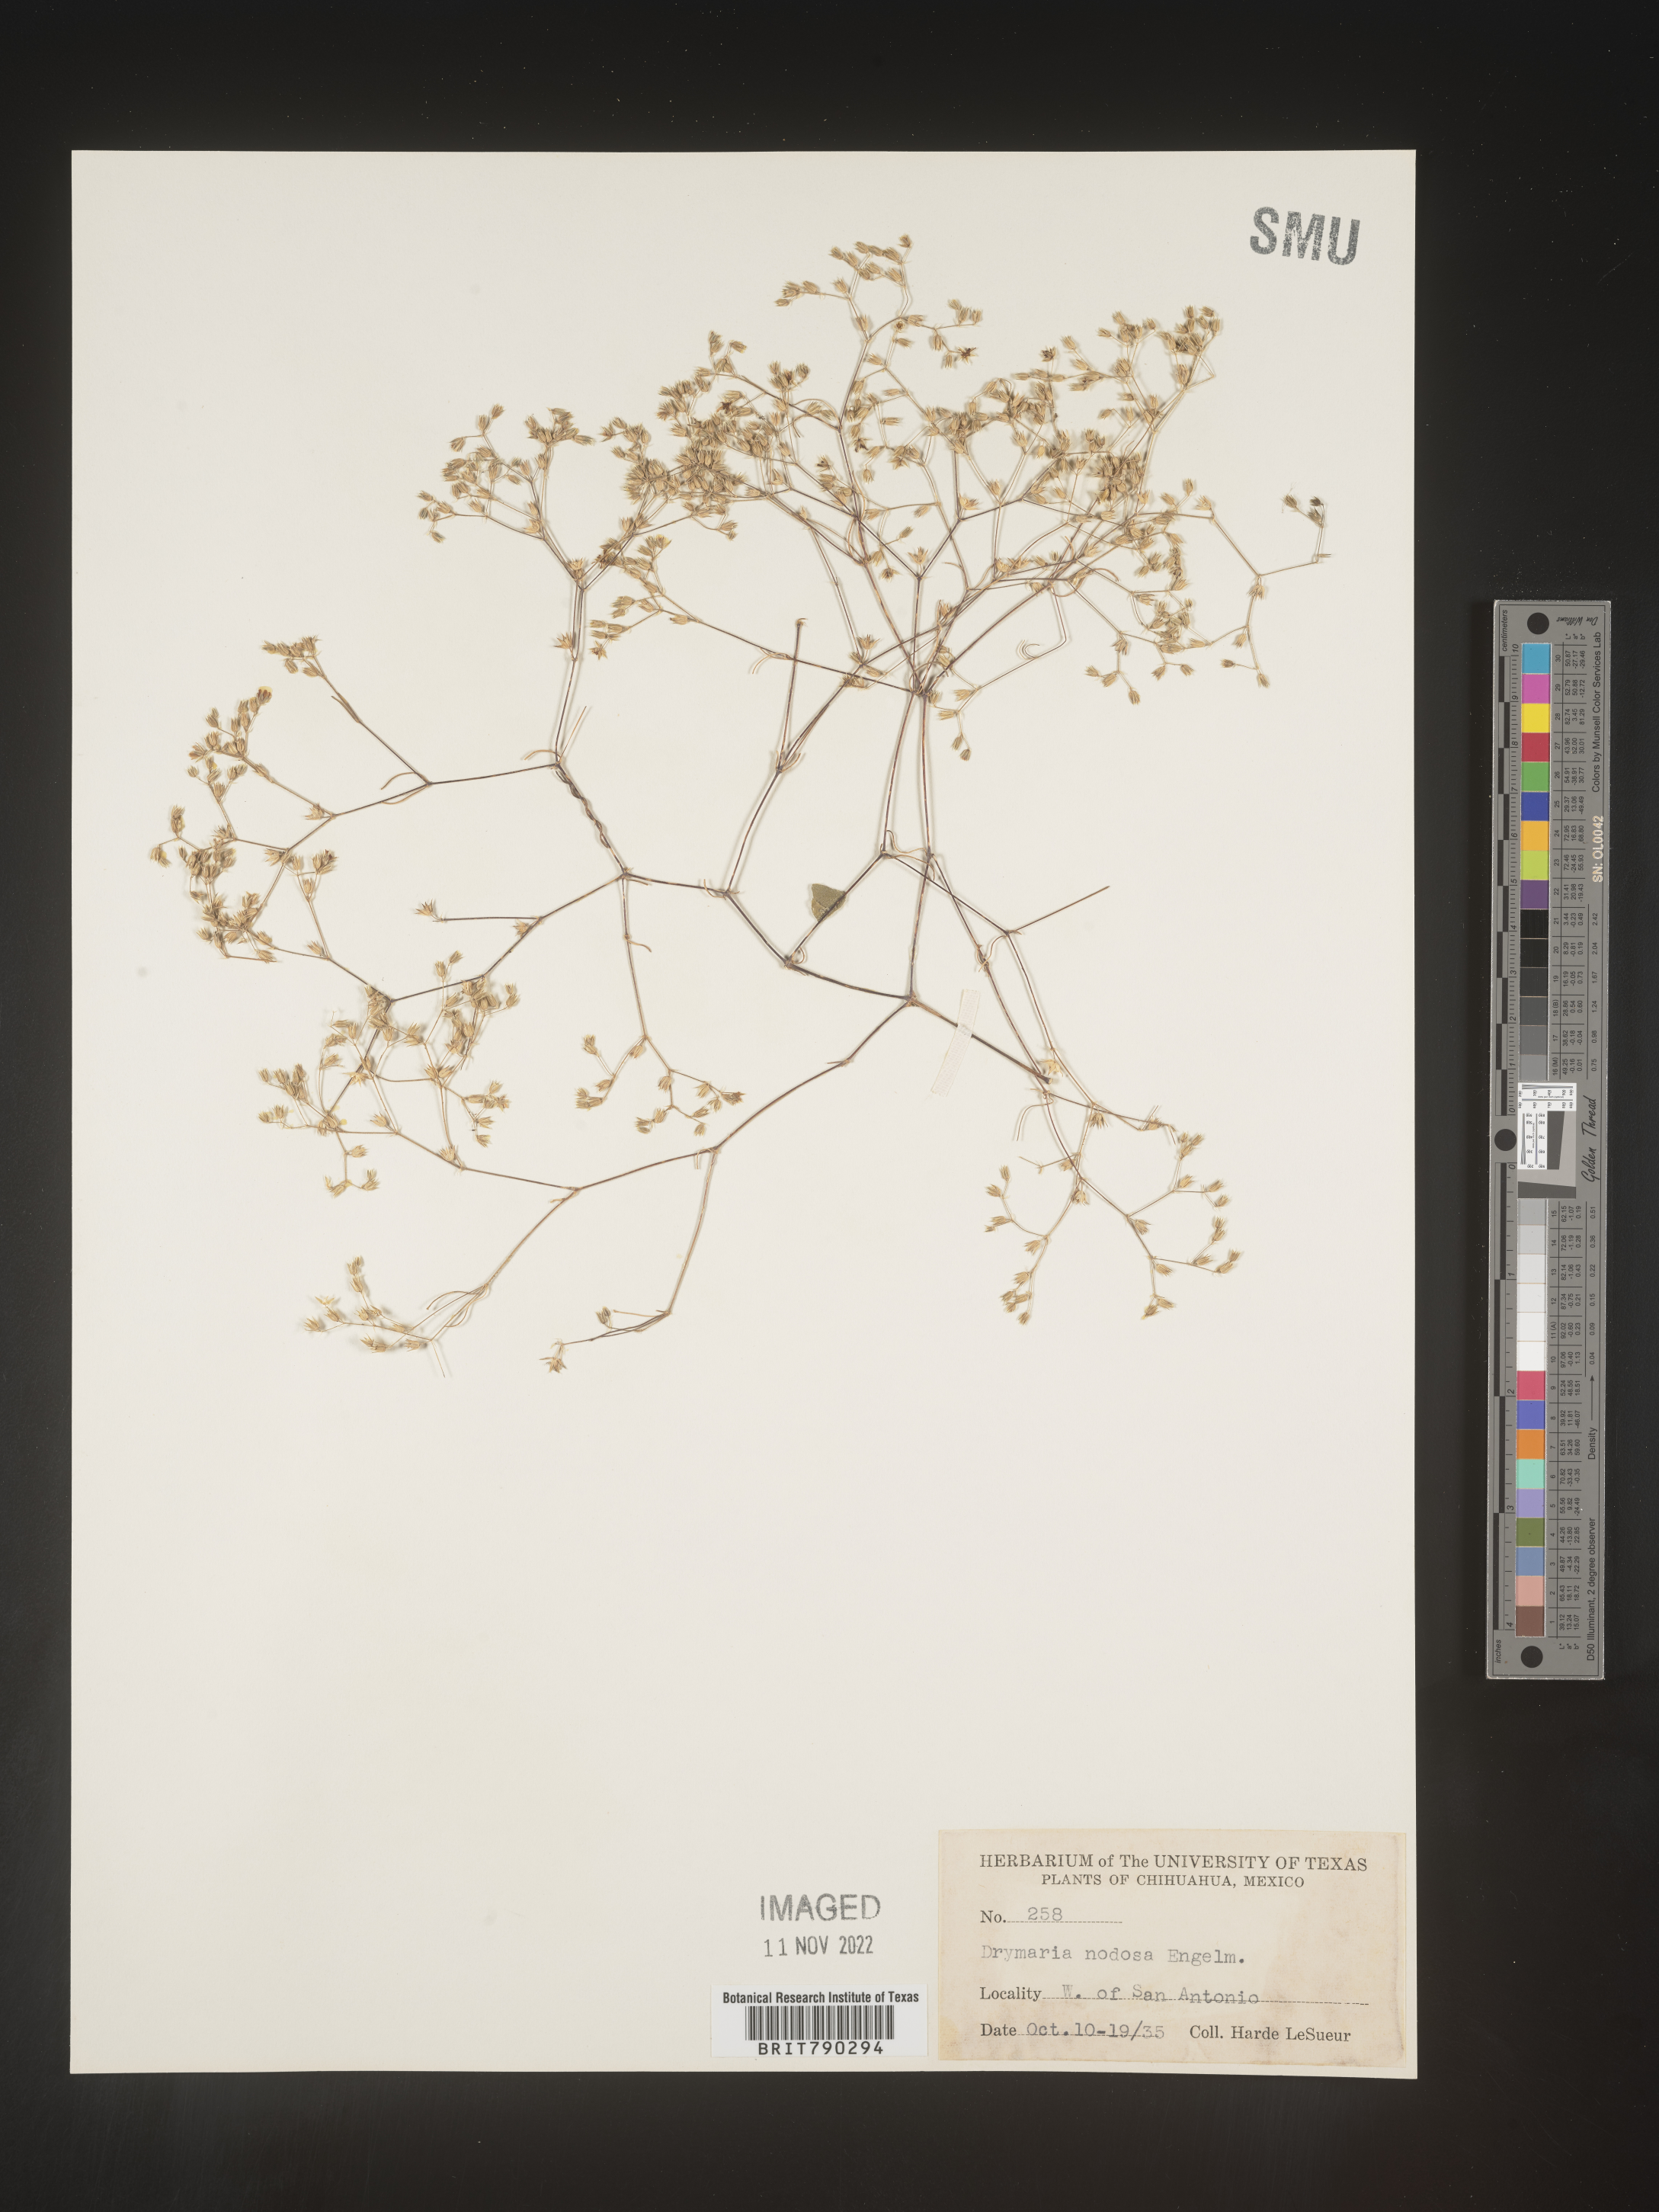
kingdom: Plantae
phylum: Tracheophyta
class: Magnoliopsida
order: Caryophyllales
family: Caryophyllaceae
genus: Drymaria
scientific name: Drymaria
